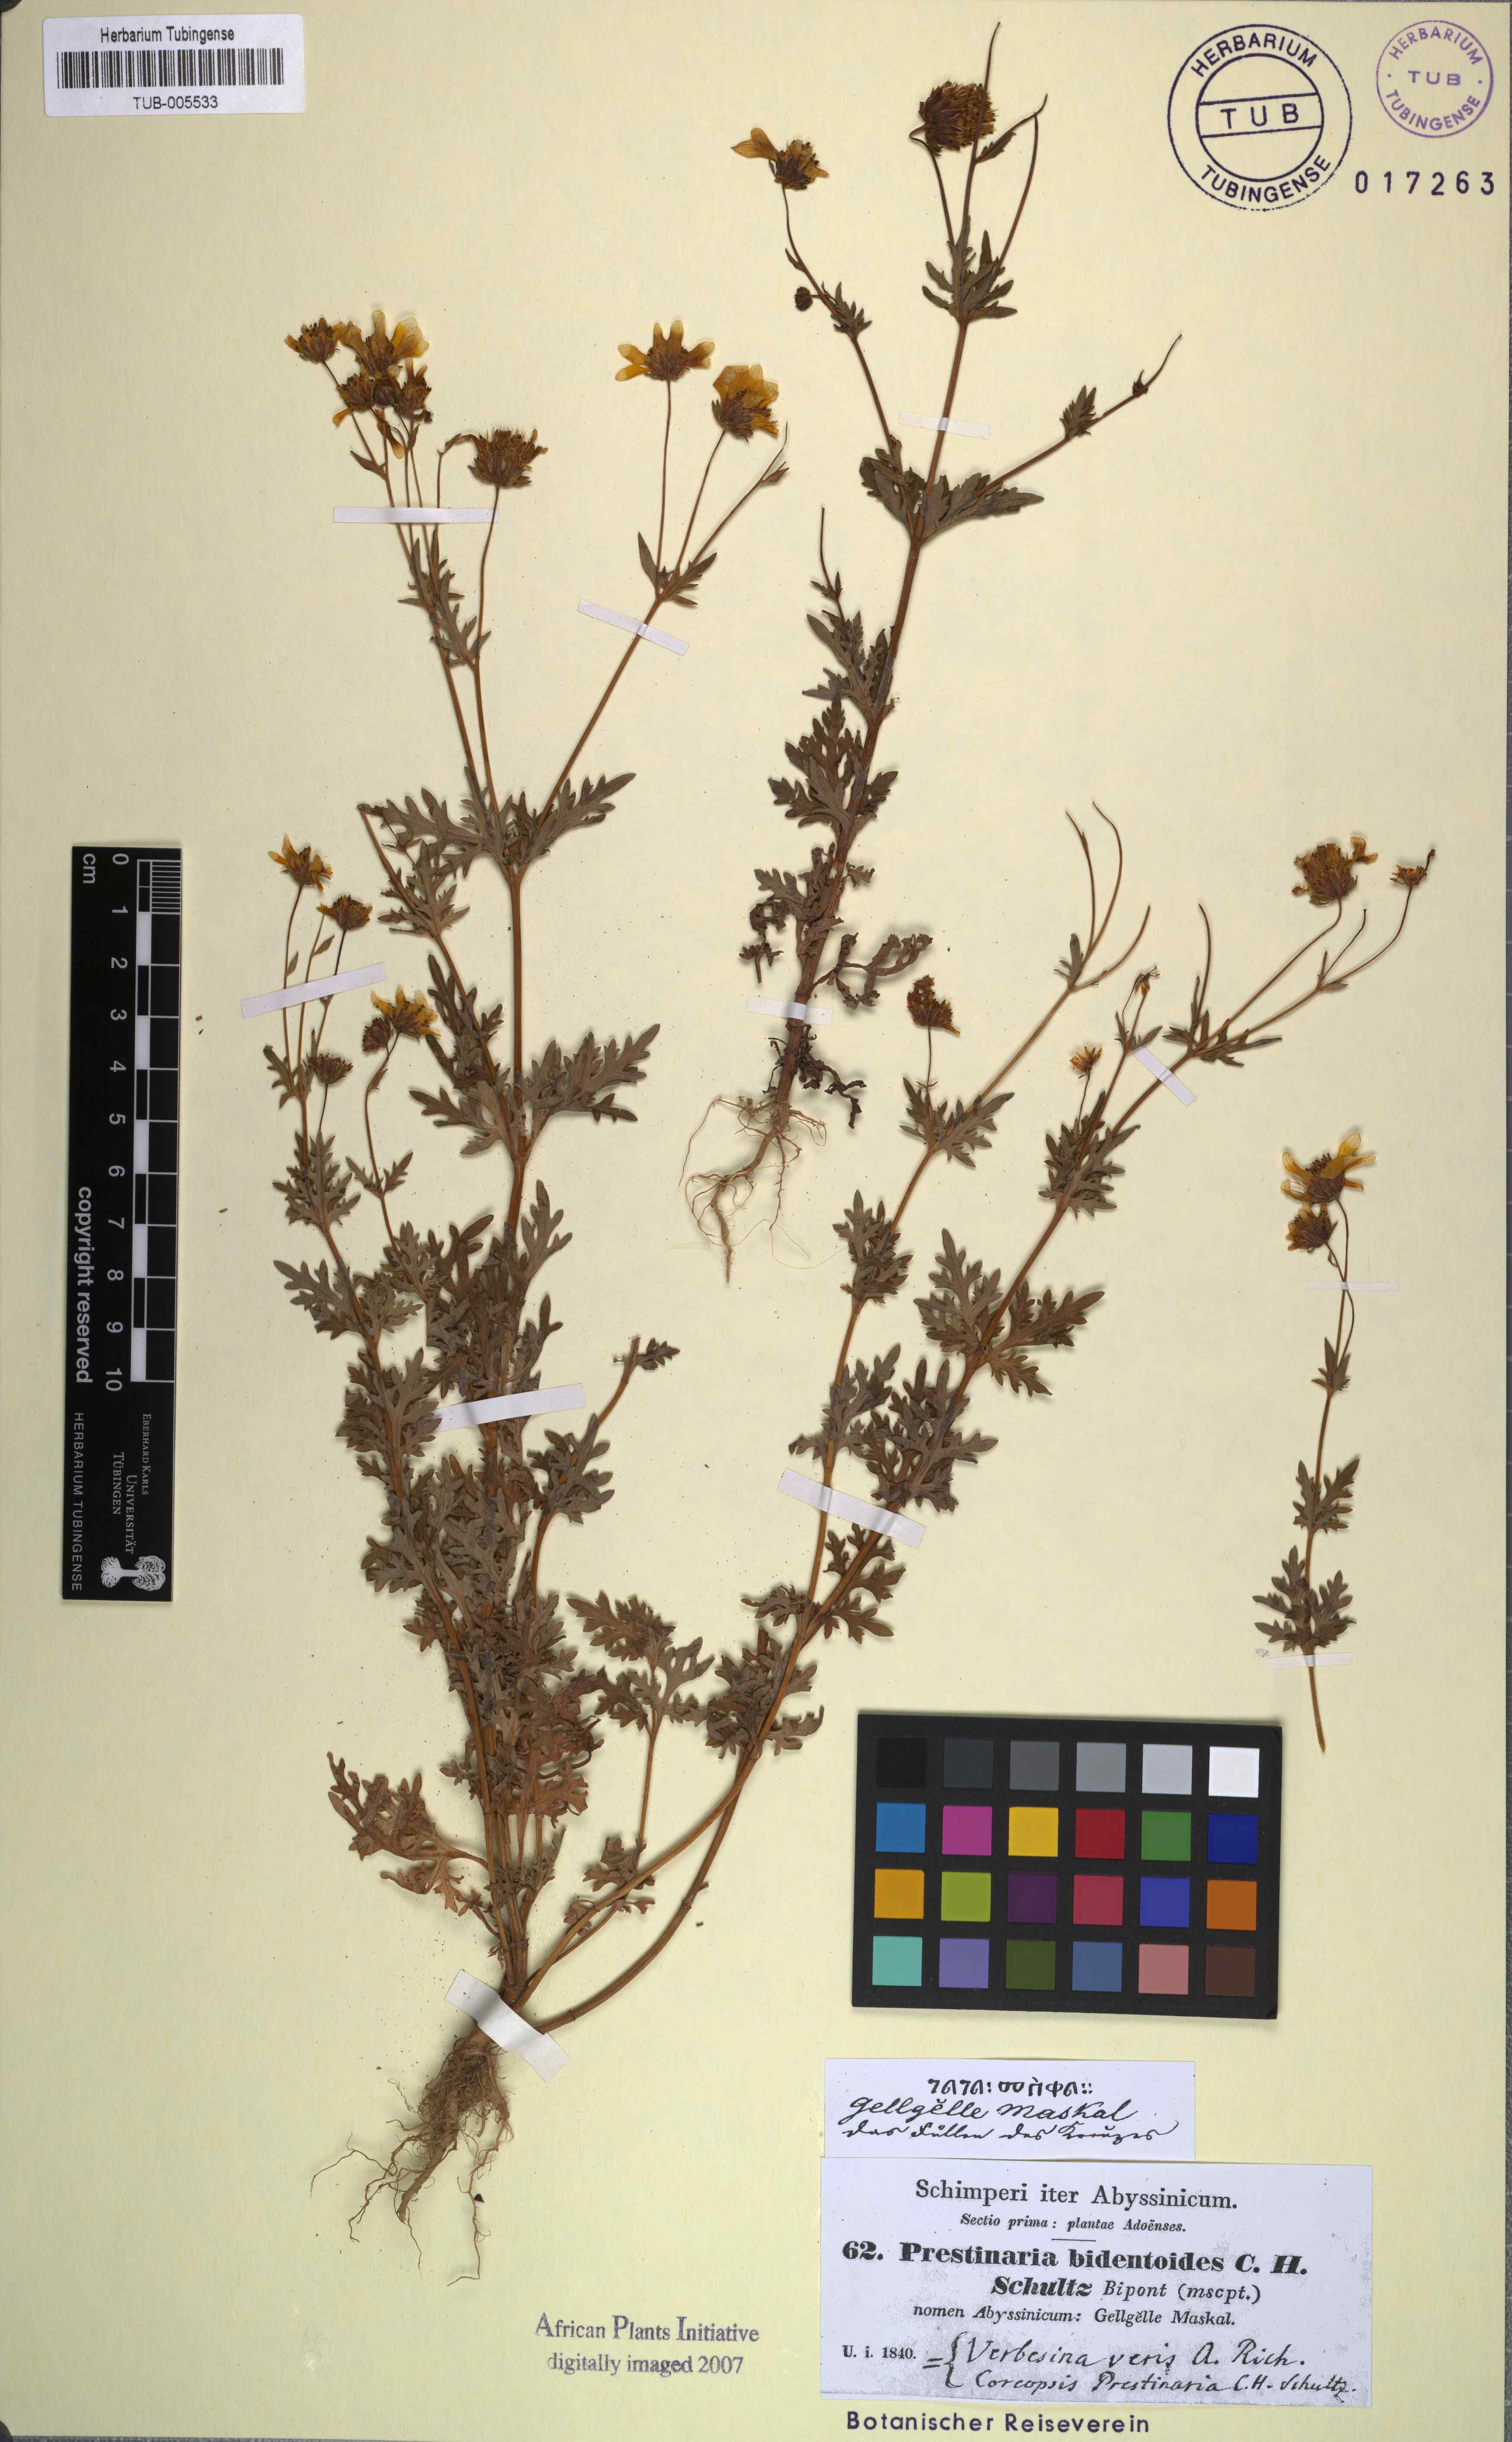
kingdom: Plantae
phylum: Tracheophyta
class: Magnoliopsida
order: Asterales
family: Asteraceae
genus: Bidens
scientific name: Bidens prestinaria
